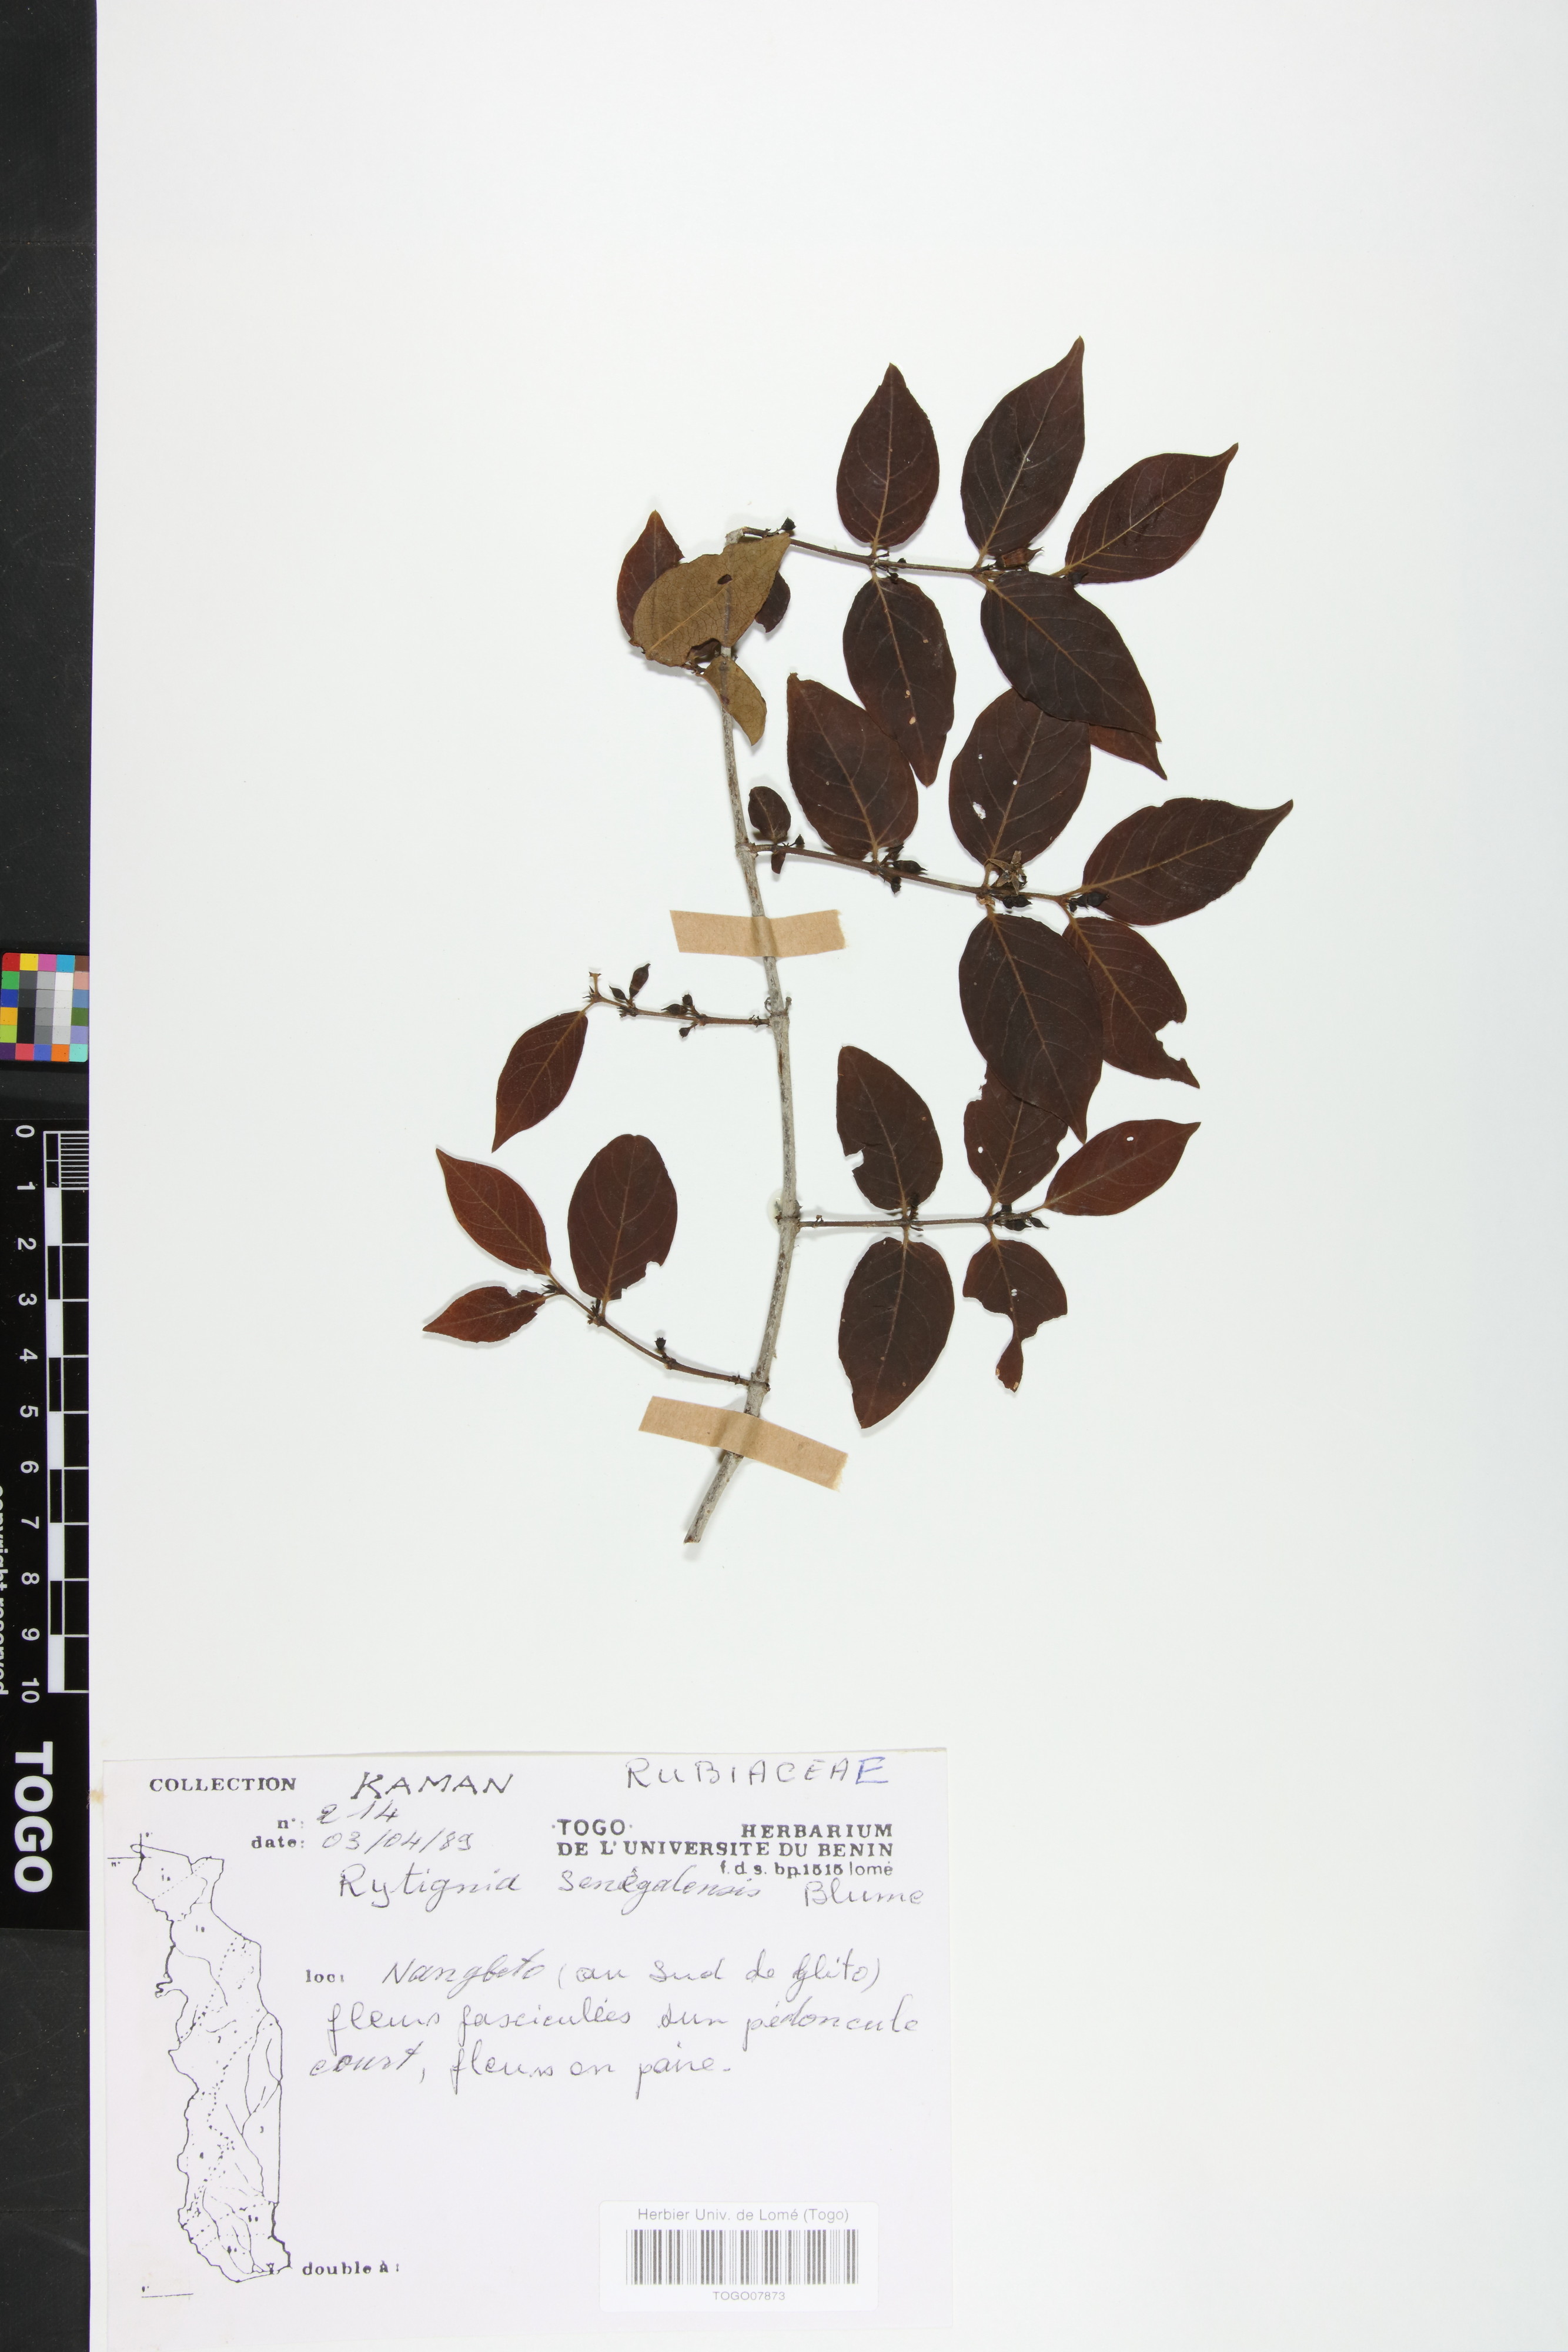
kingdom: Plantae
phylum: Tracheophyta
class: Magnoliopsida
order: Gentianales
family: Rubiaceae
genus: Rytigynia
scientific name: Rytigynia senegalensis
